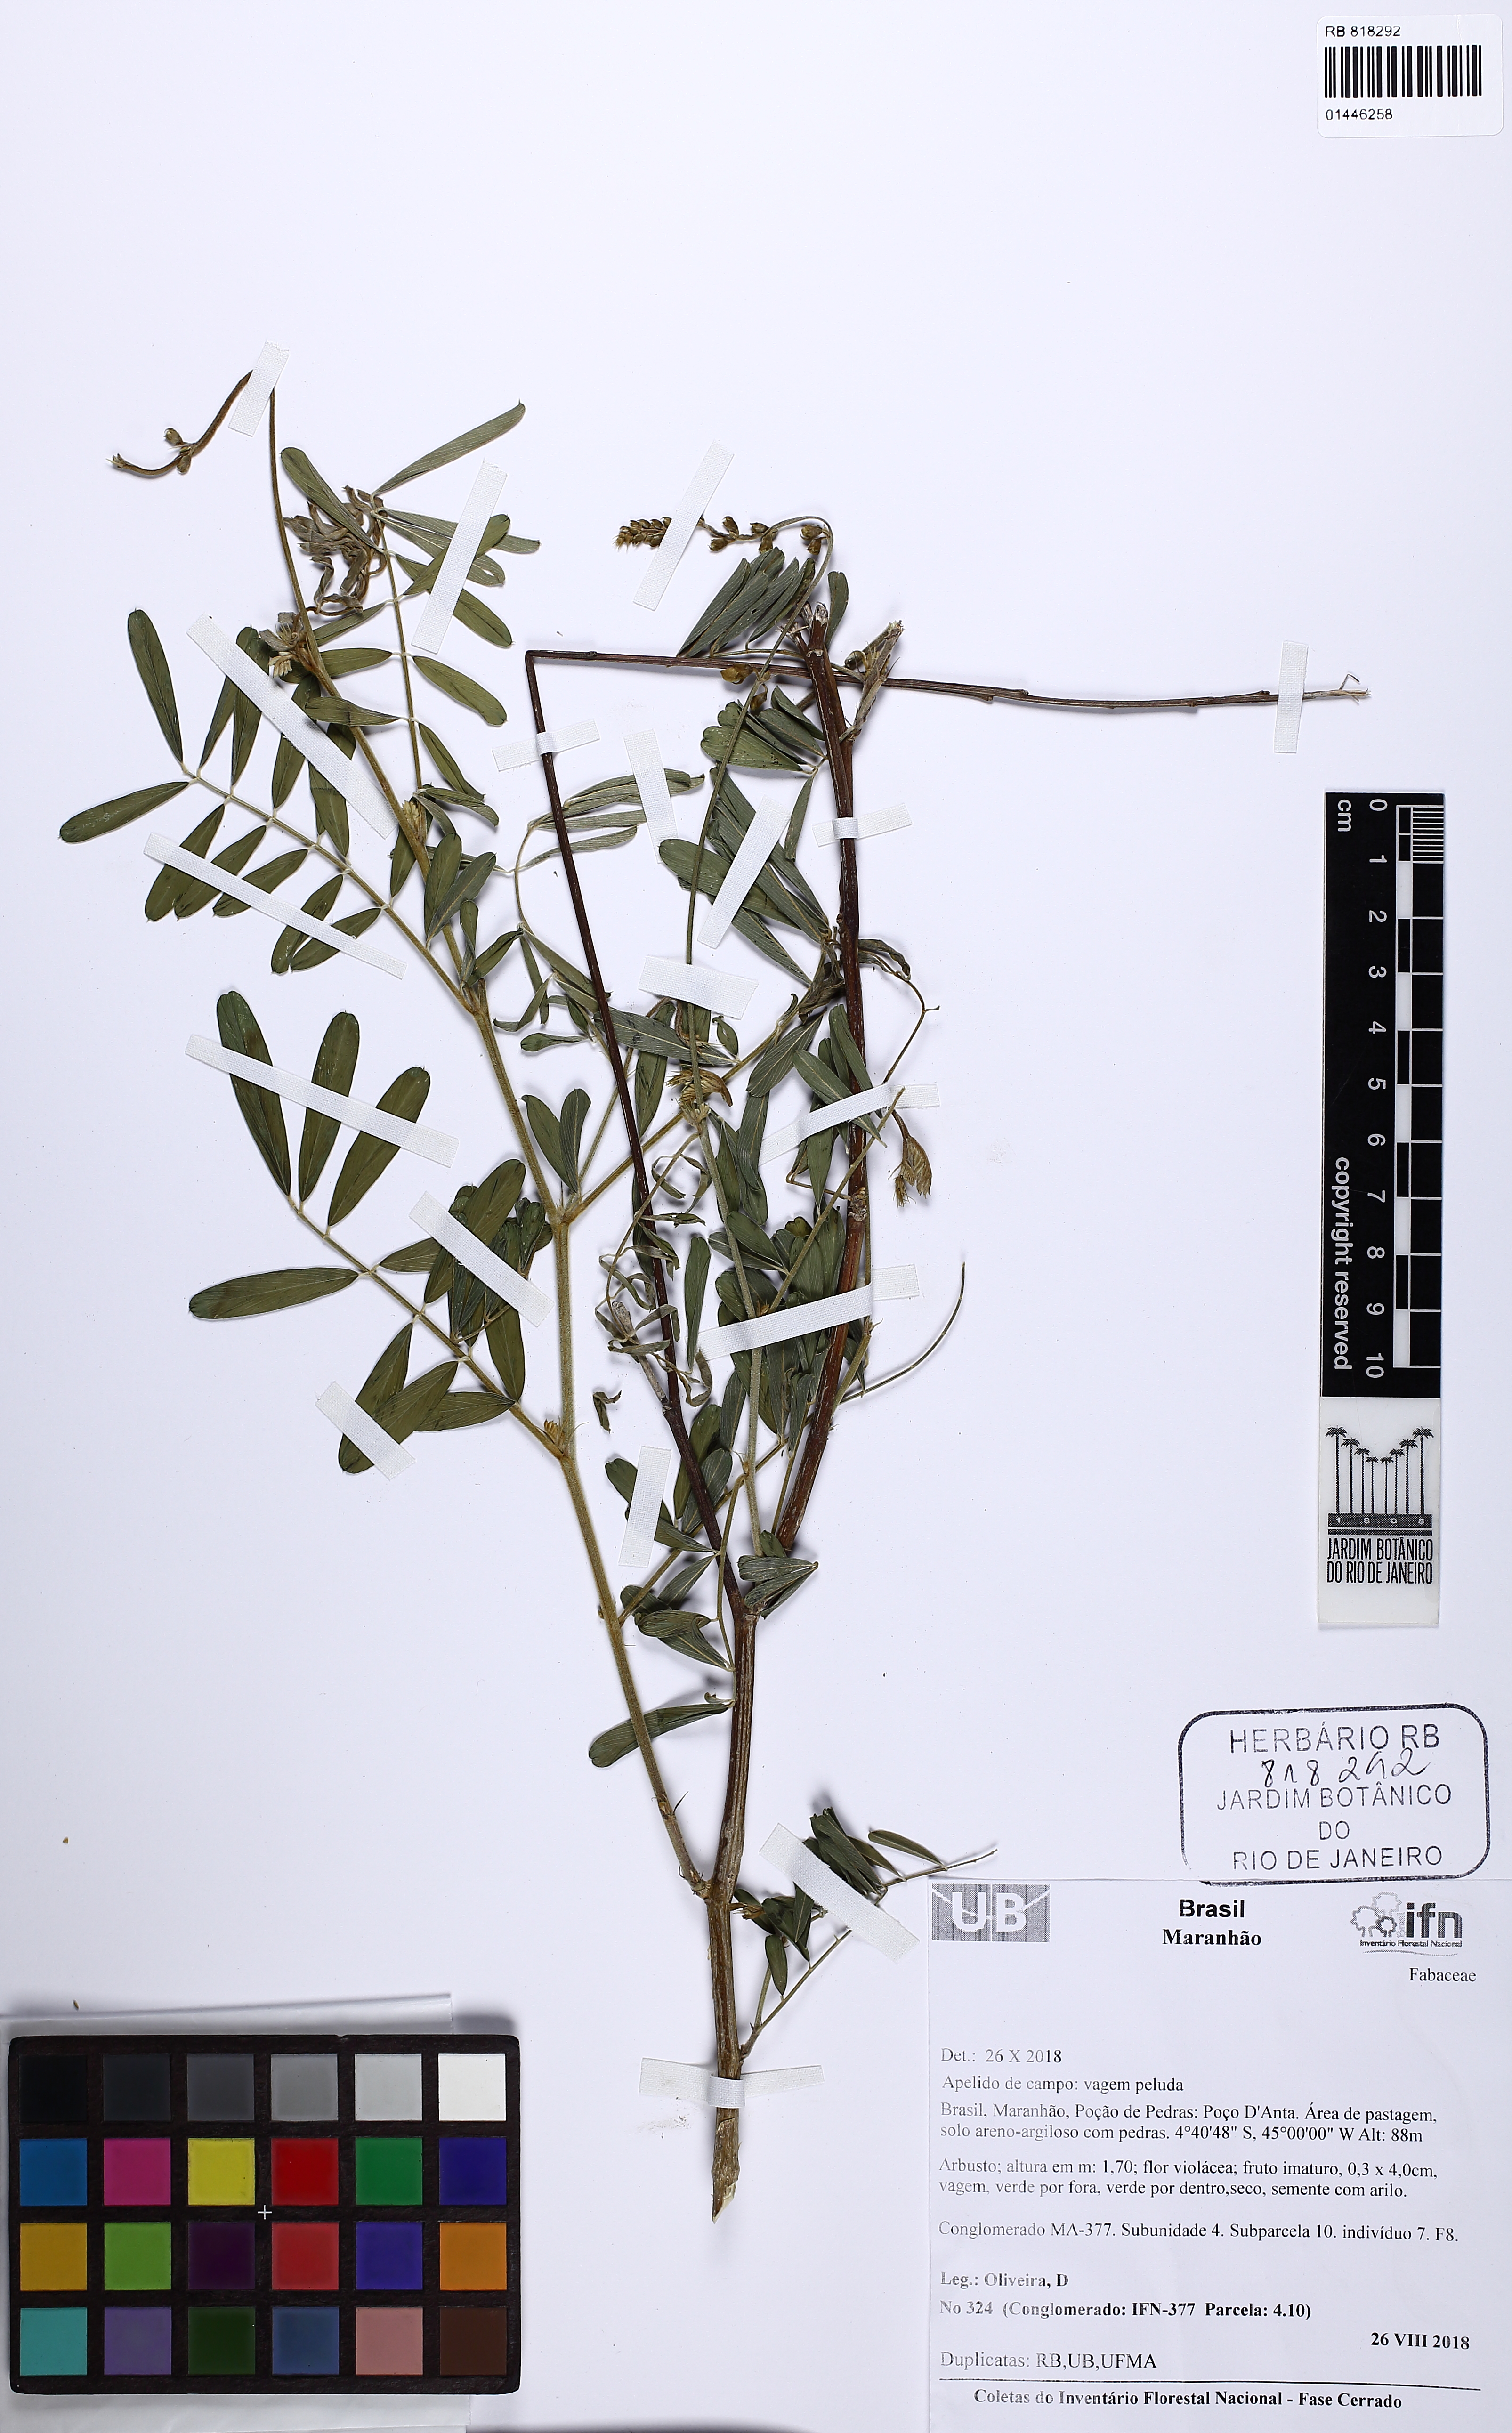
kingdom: Plantae
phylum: Tracheophyta
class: Magnoliopsida
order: Fabales
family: Fabaceae
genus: Tephrosia
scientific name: Tephrosia
